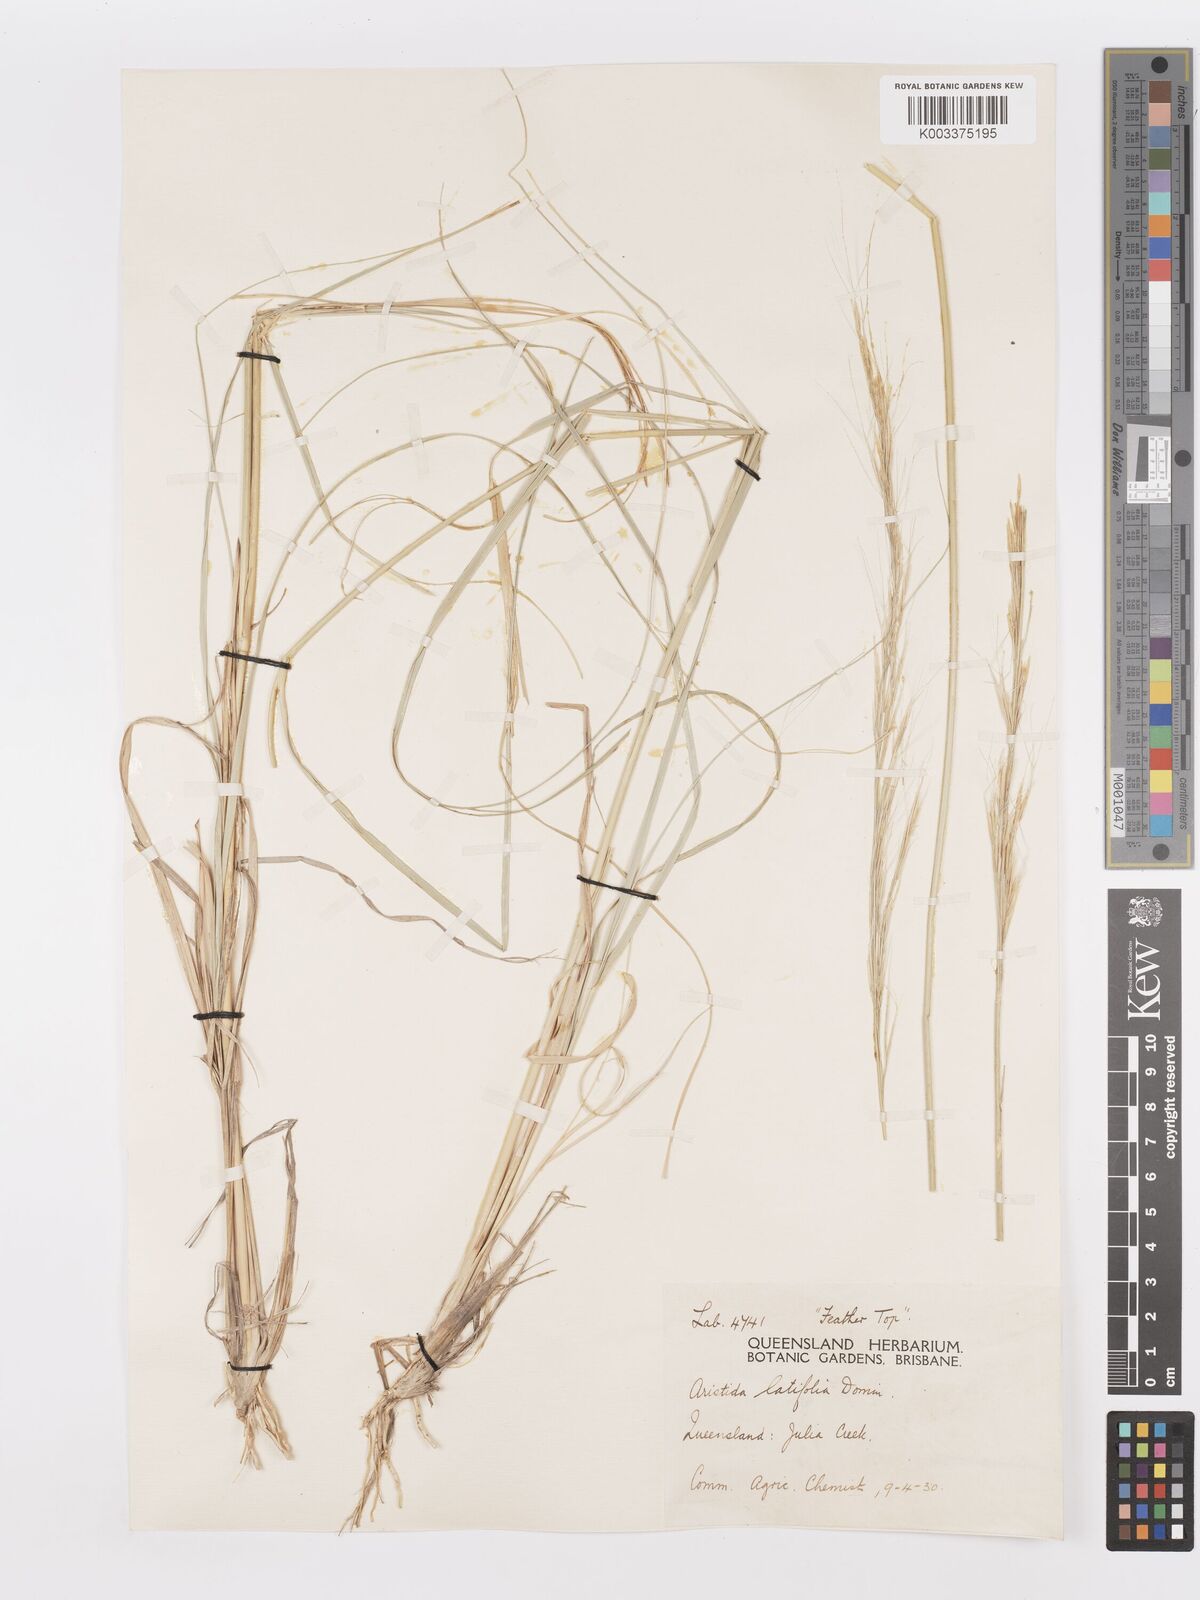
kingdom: Plantae
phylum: Tracheophyta
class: Liliopsida
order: Poales
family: Poaceae
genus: Aristida
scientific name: Aristida latifolia
